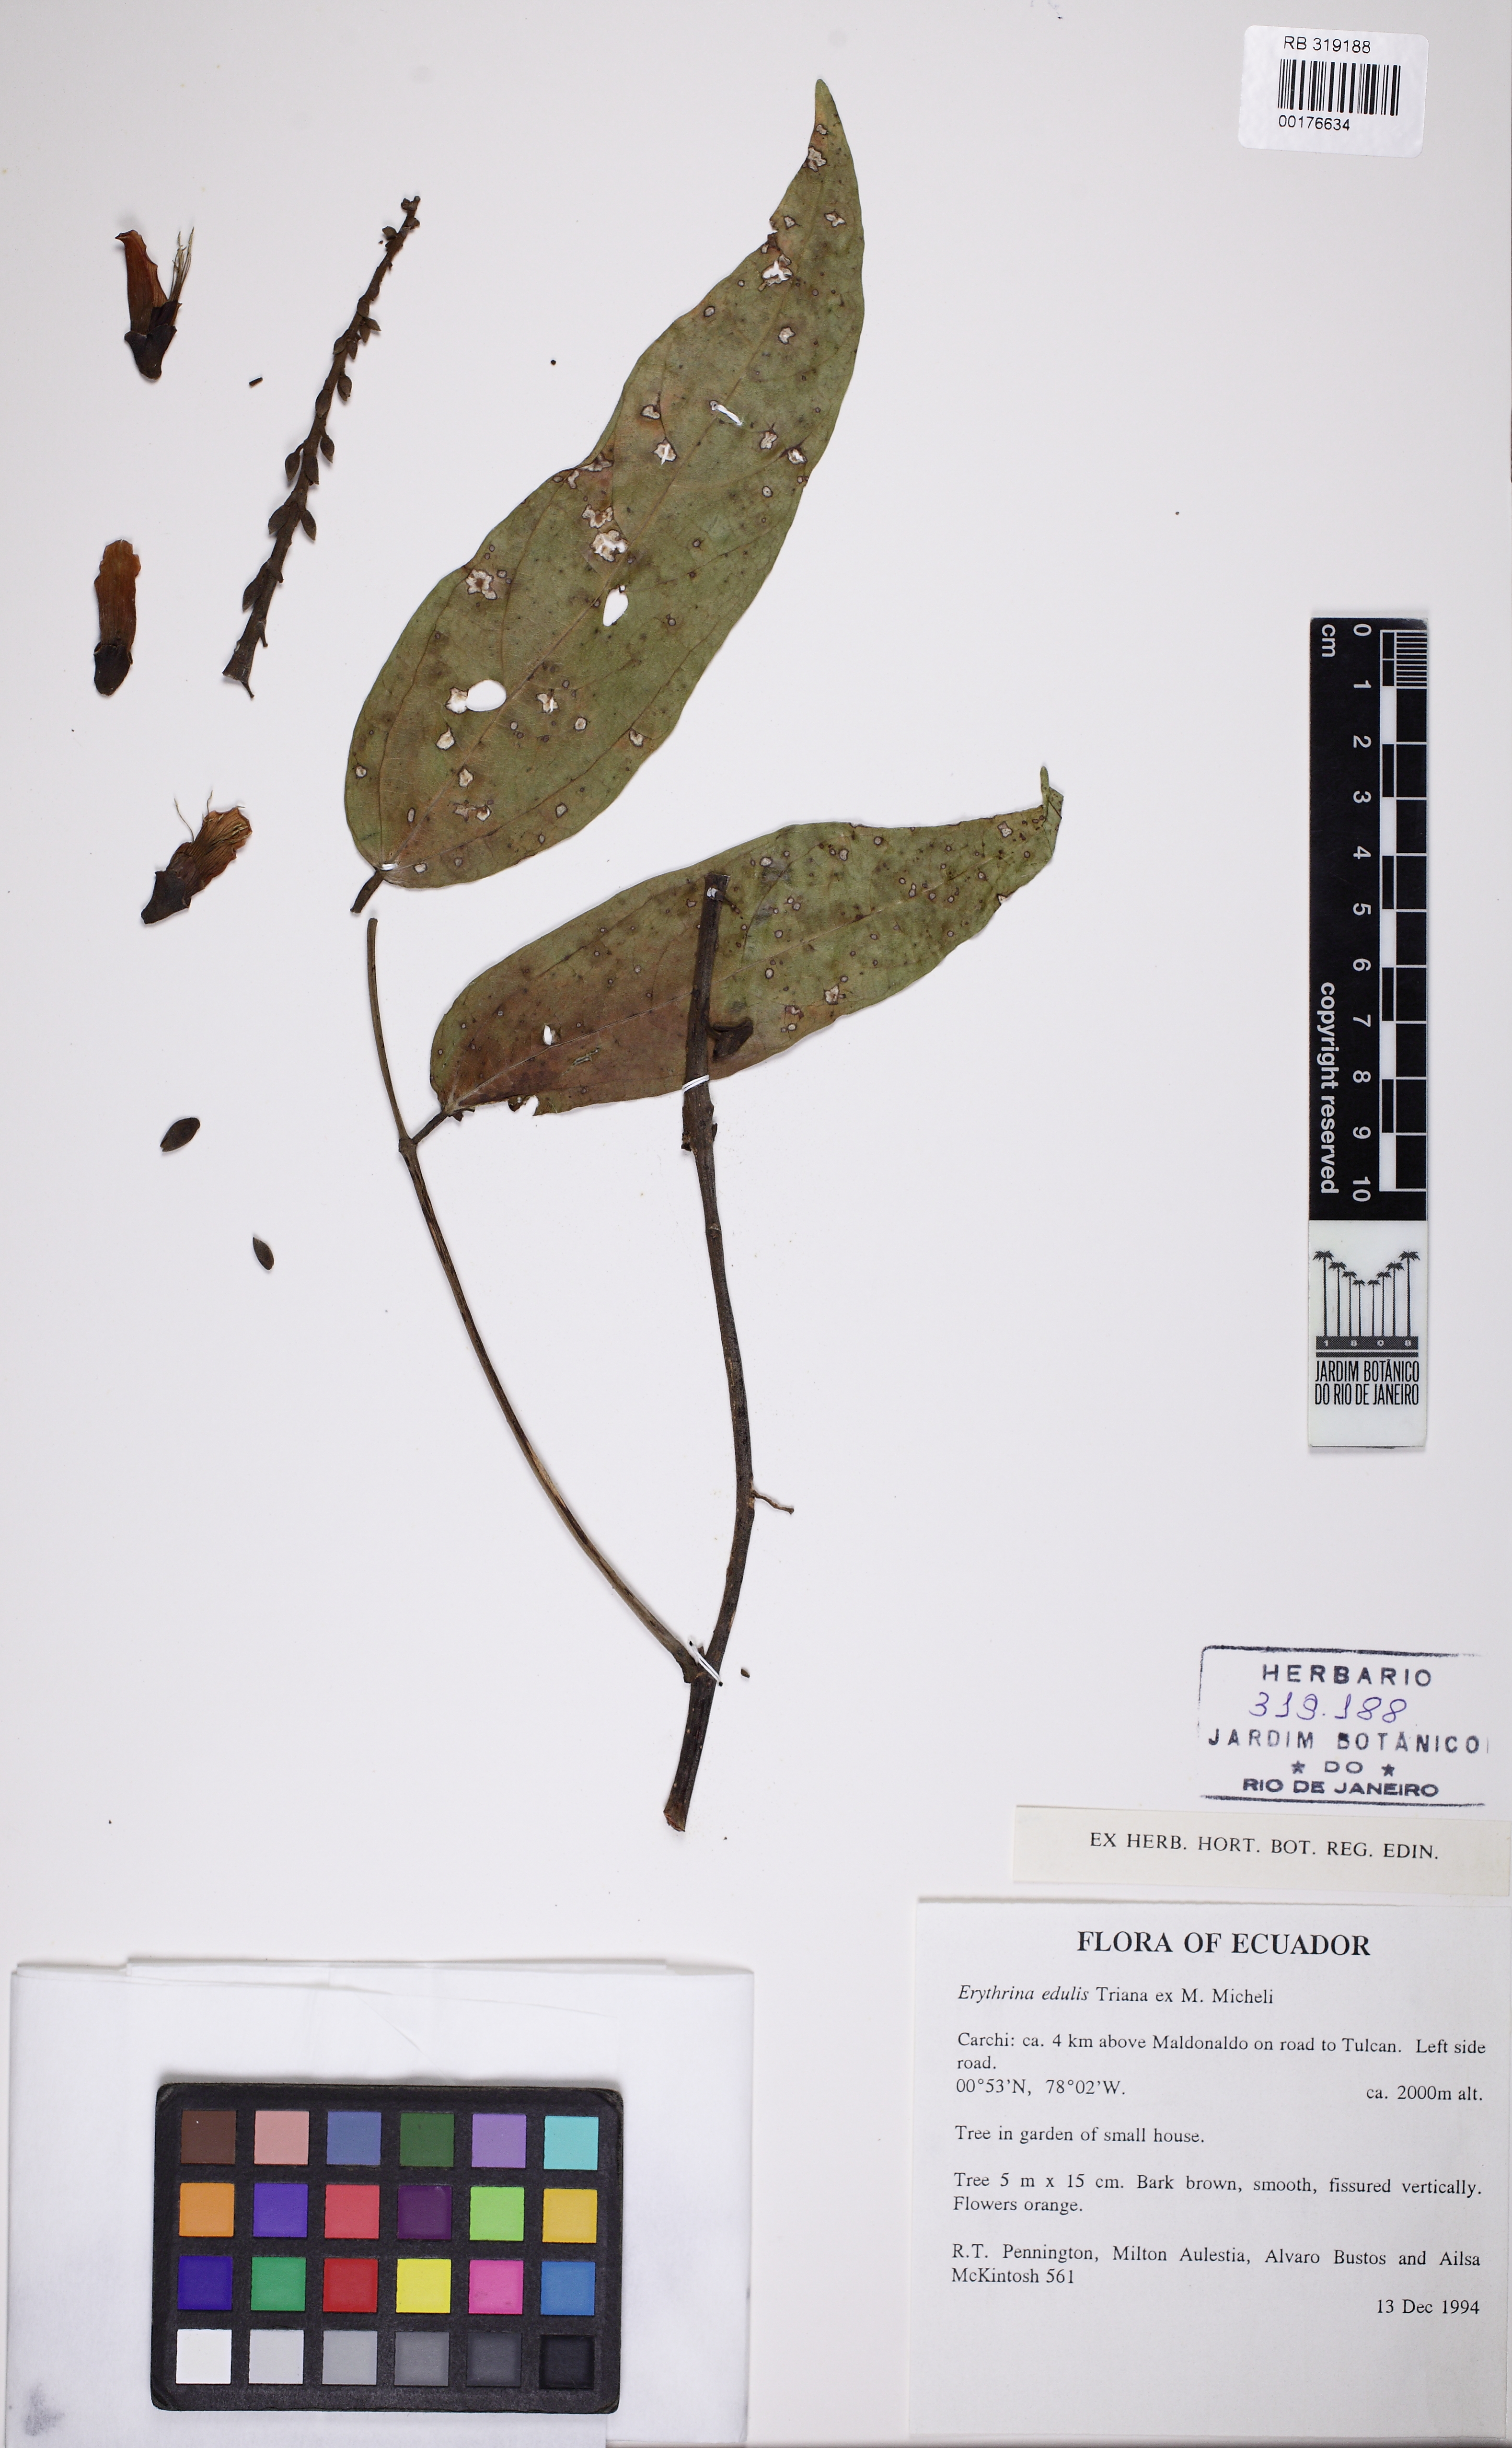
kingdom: Plantae
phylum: Tracheophyta
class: Magnoliopsida
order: Fabales
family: Fabaceae
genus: Erythrina
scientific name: Erythrina edulis
